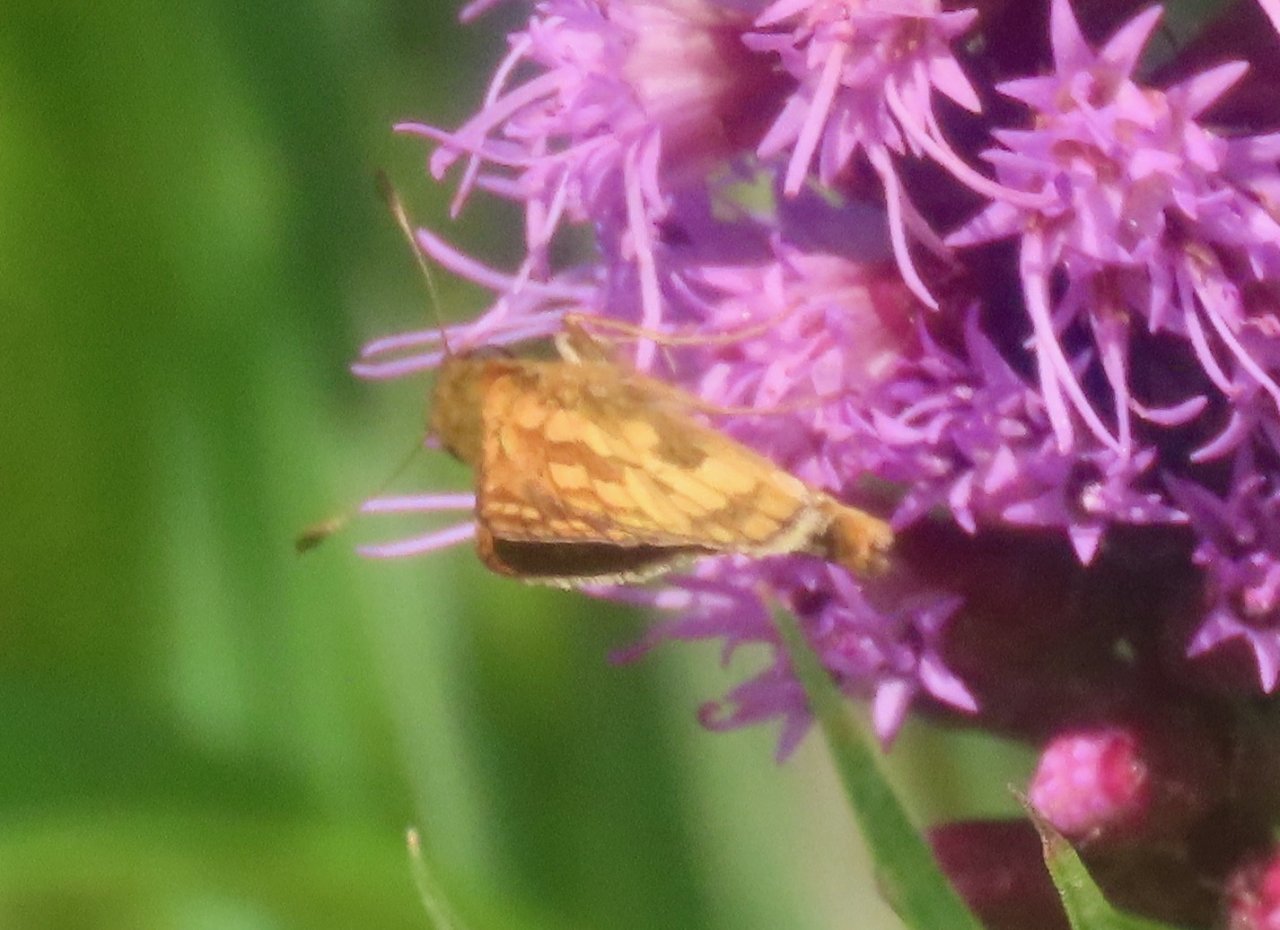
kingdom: Animalia
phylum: Arthropoda
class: Insecta
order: Lepidoptera
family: Hesperiidae
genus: Polites
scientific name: Polites coras
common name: Peck's Skipper
